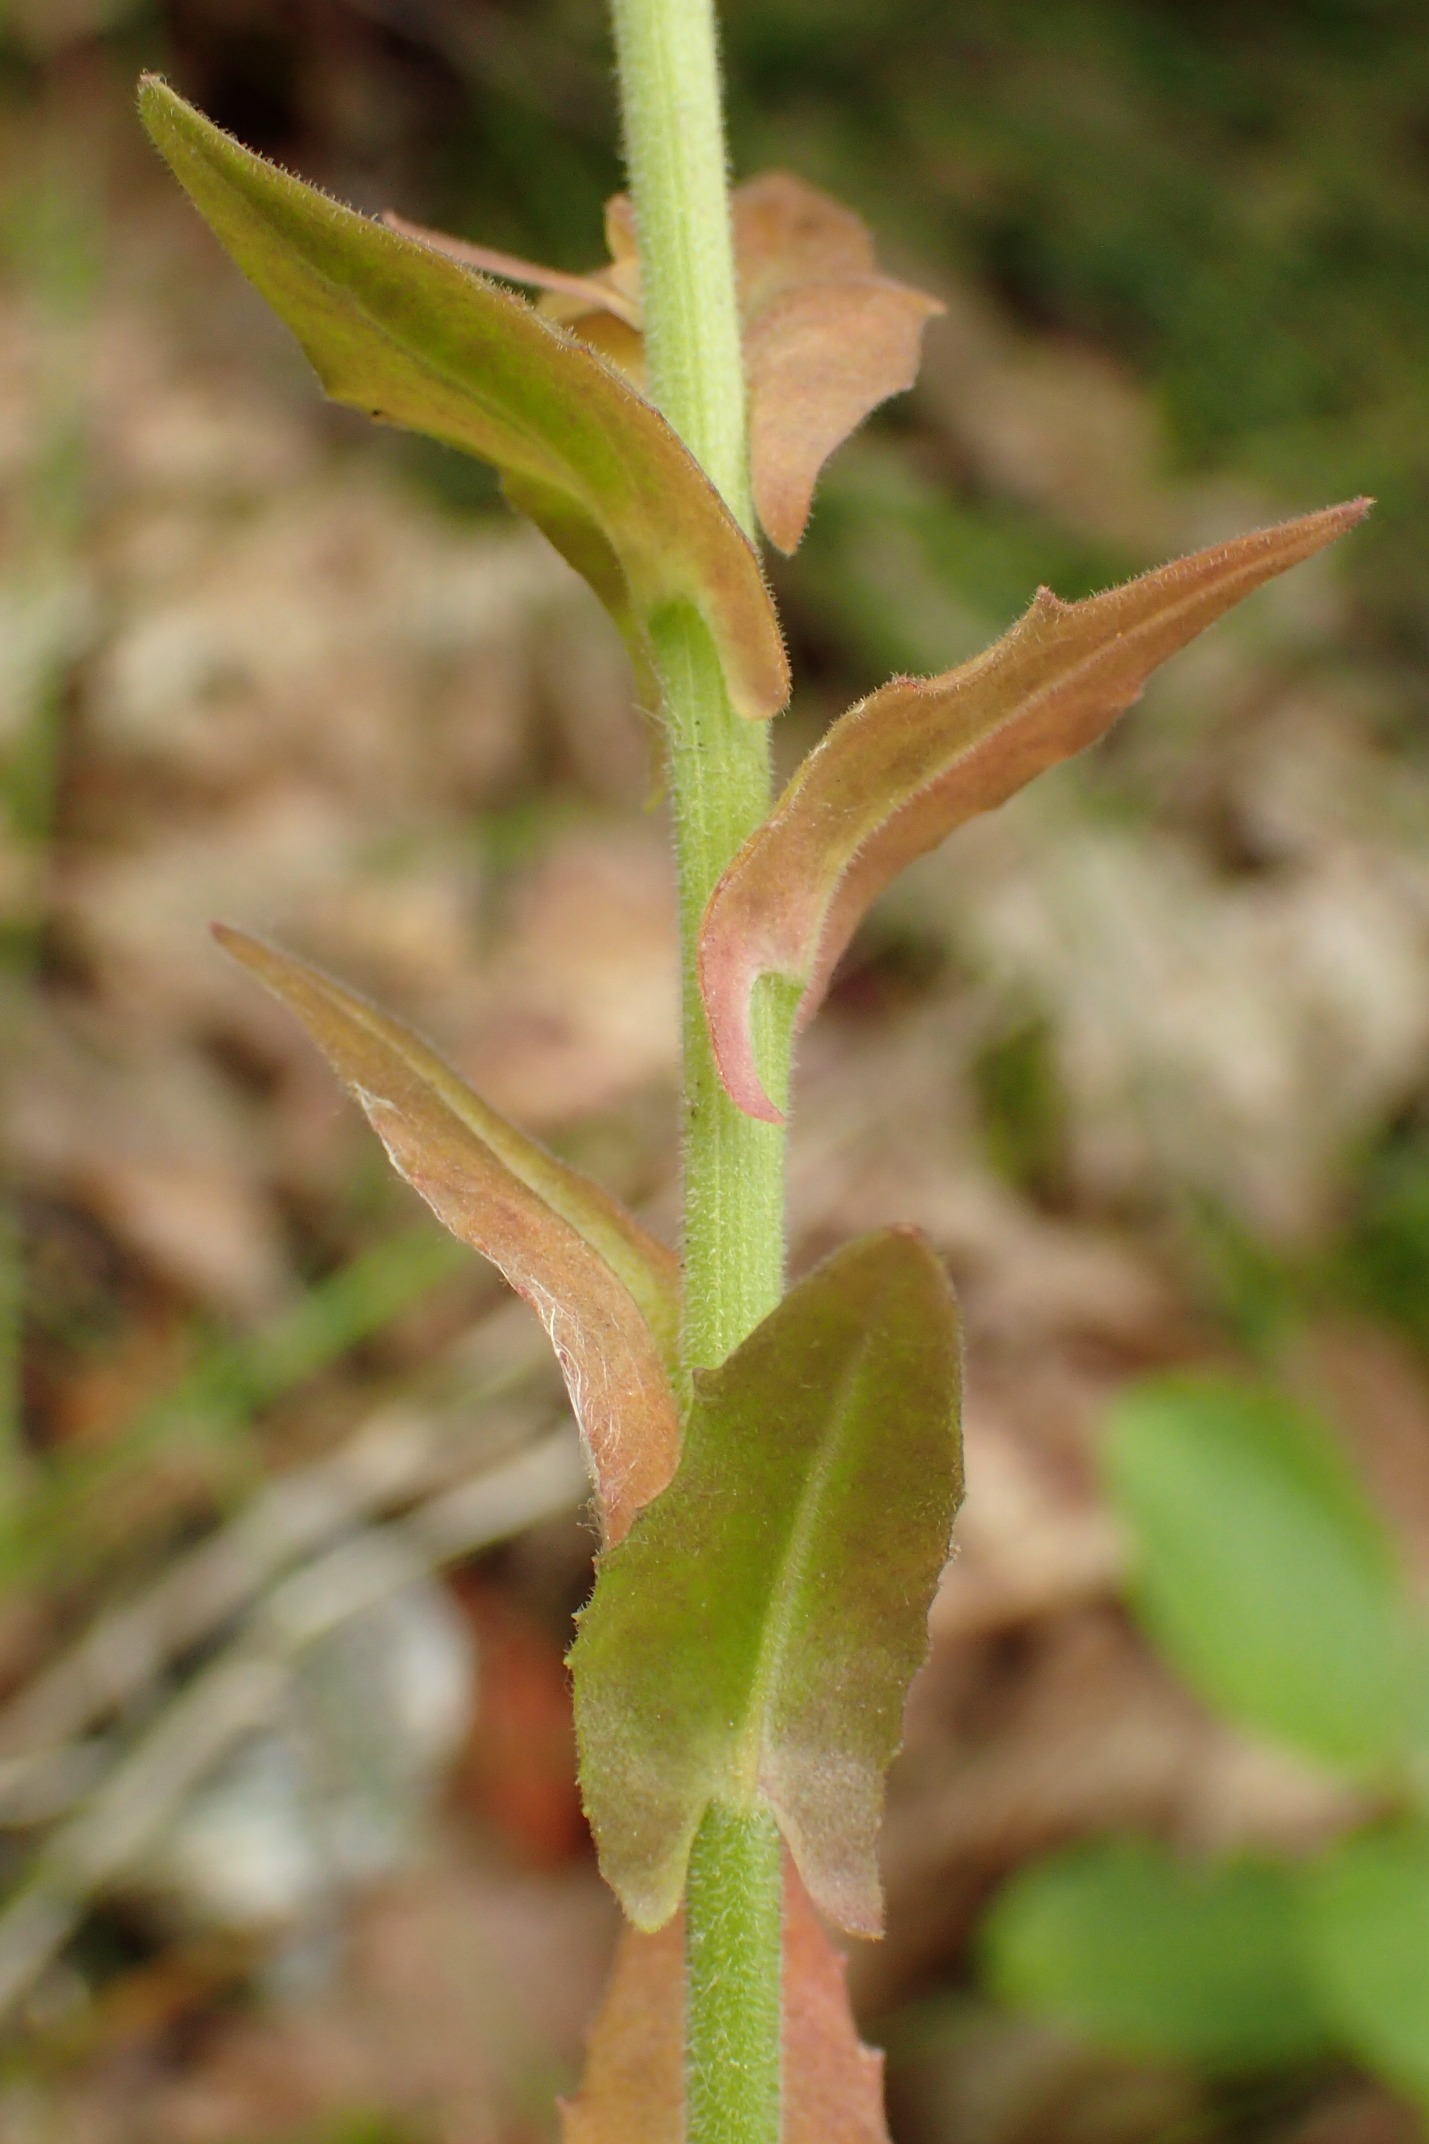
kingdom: Plantae
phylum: Tracheophyta
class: Magnoliopsida
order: Brassicales
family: Brassicaceae
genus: Lepidium
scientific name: Lepidium campestre
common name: Salomons lysestage
